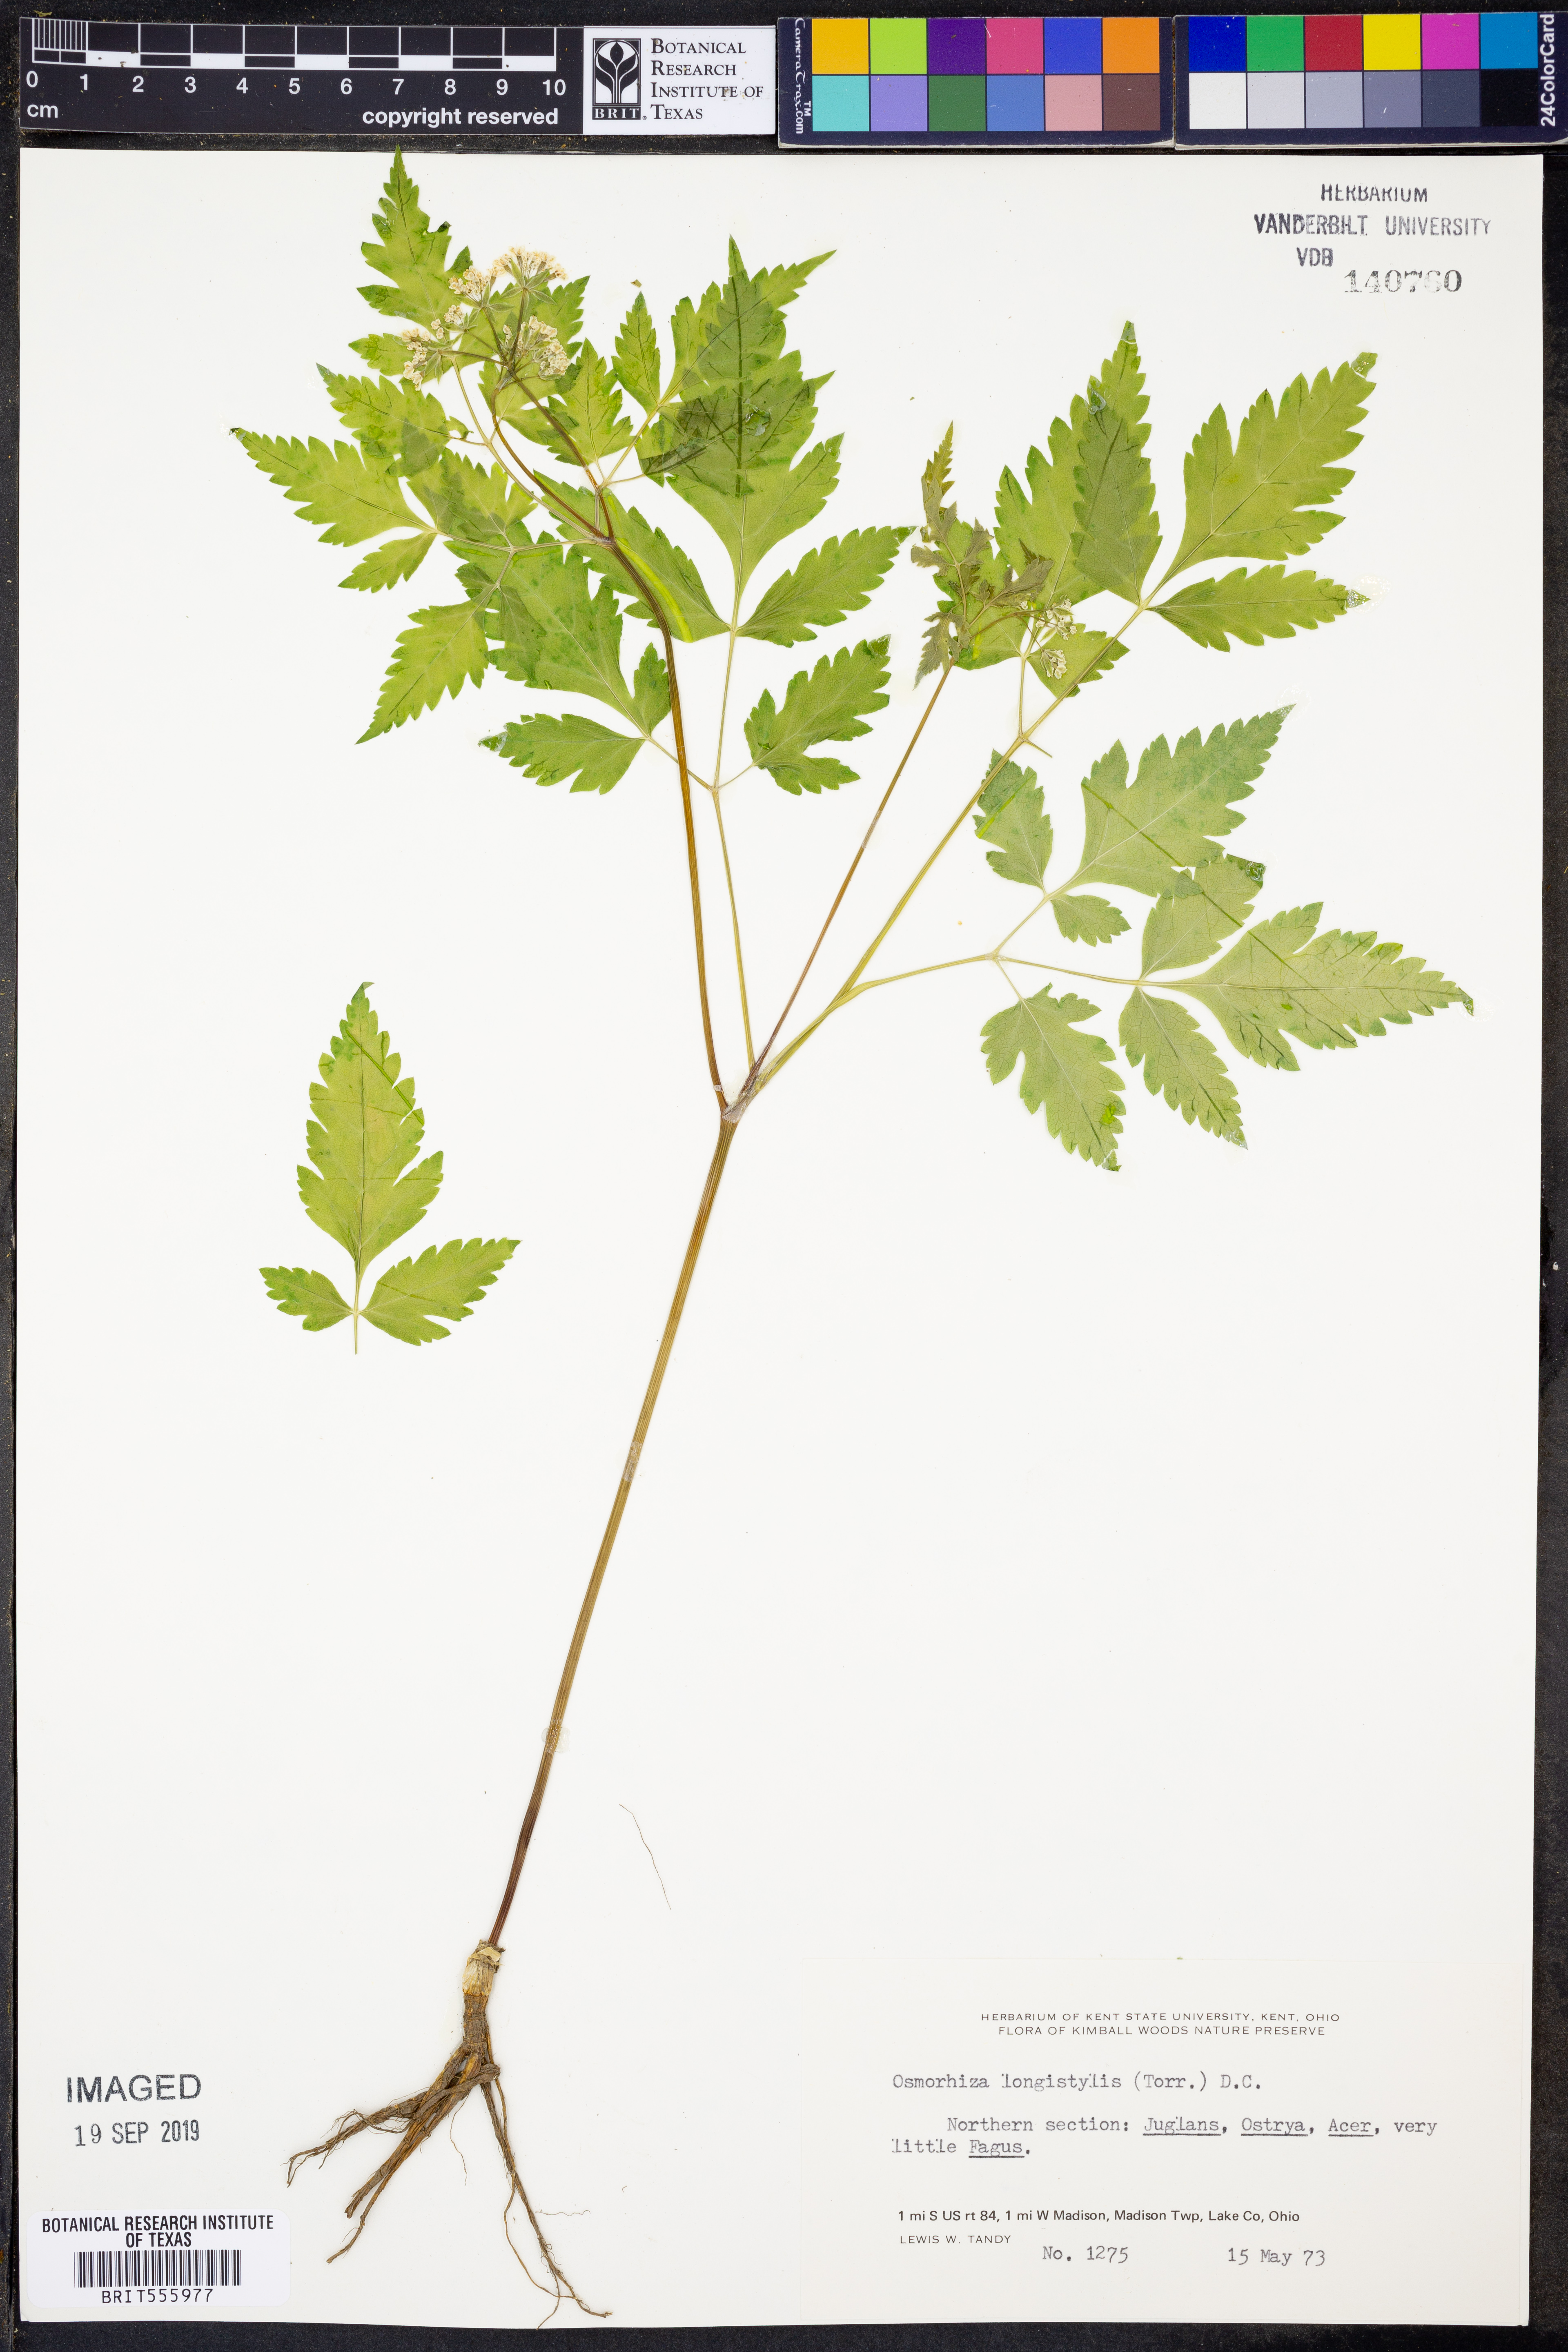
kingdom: Plantae
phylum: Tracheophyta
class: Magnoliopsida
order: Apiales
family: Apiaceae
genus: Osmorhiza
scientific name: Osmorhiza longistylis
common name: Smooth sweet cicely
